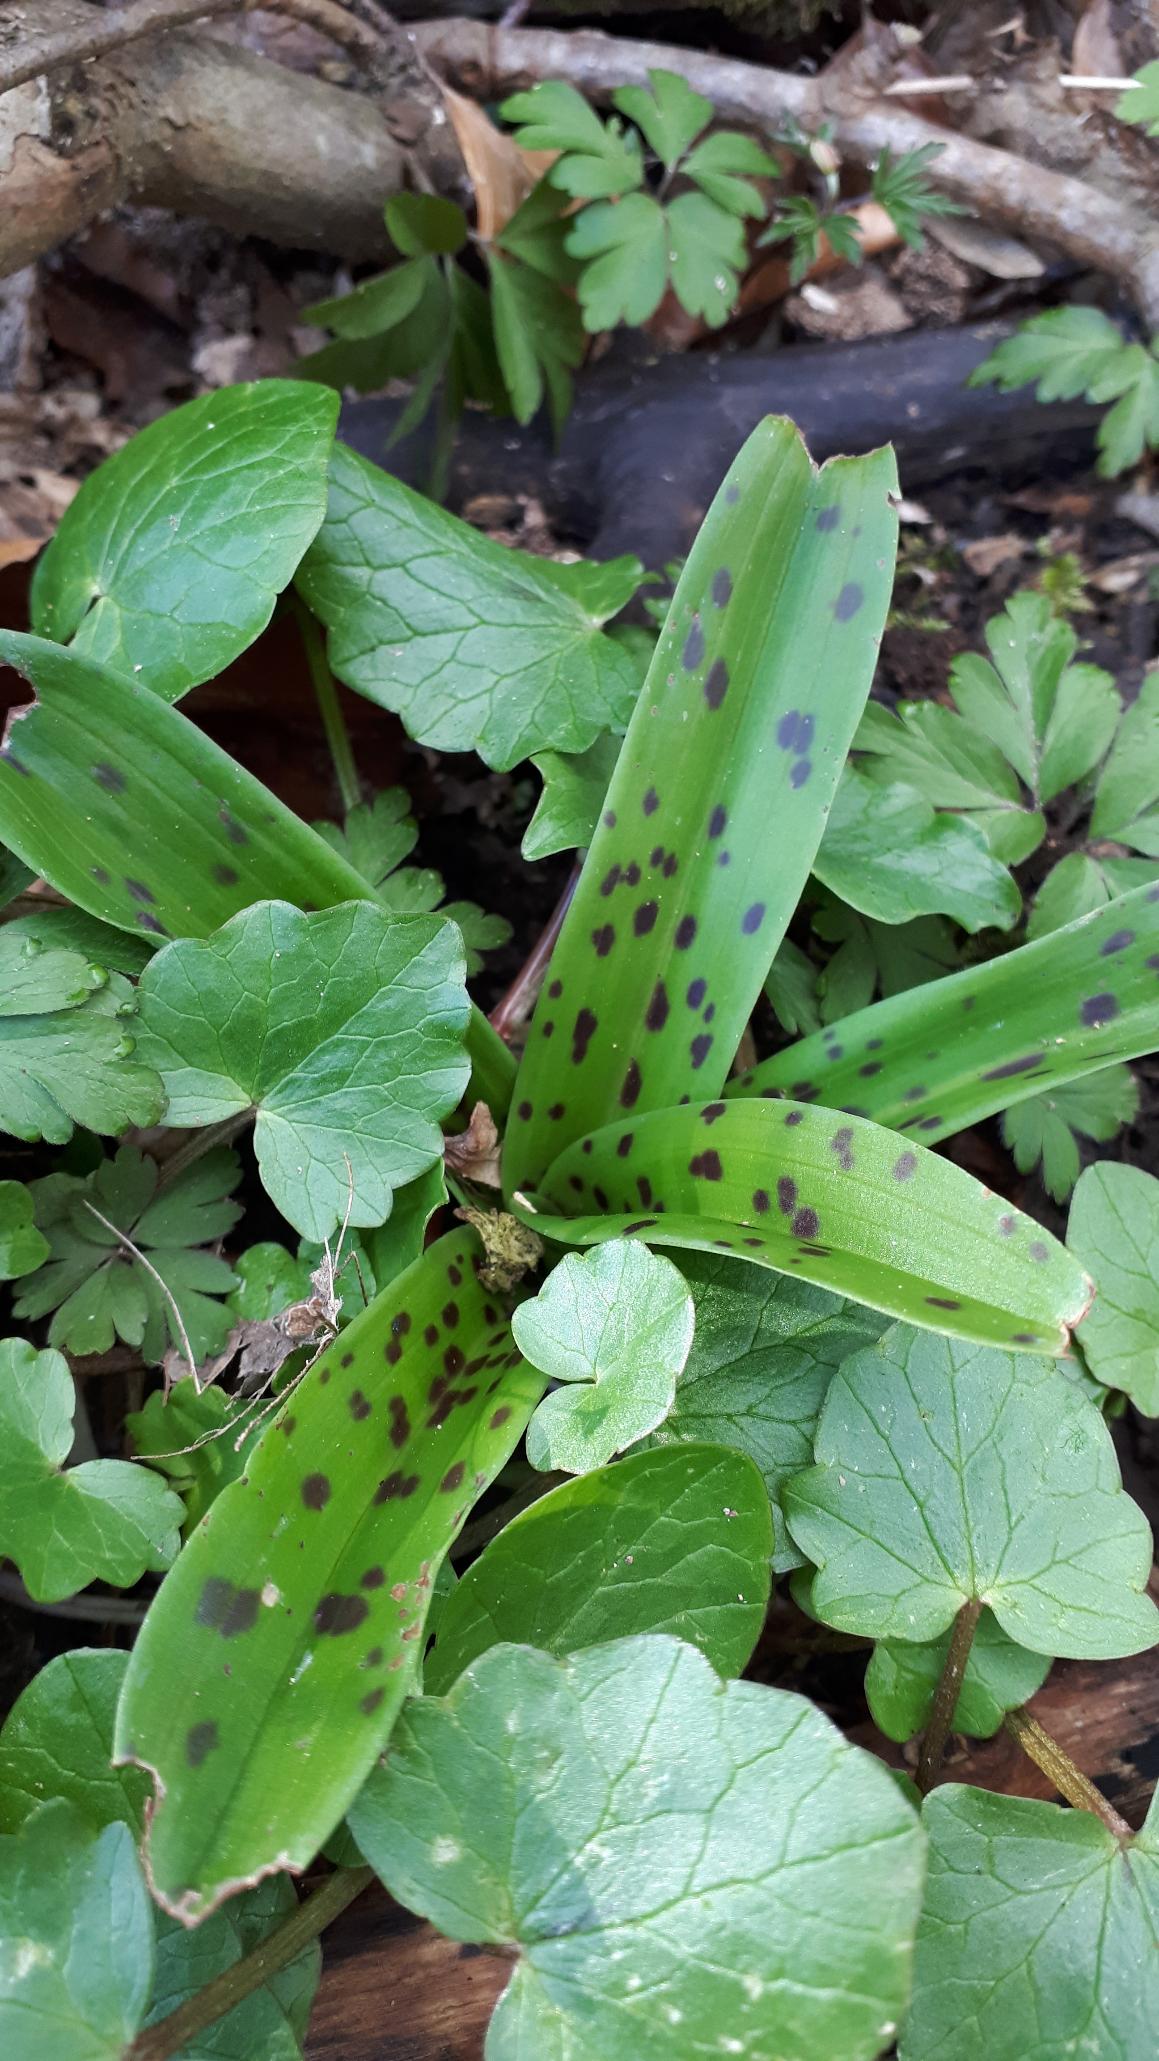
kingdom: Plantae
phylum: Tracheophyta
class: Liliopsida
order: Asparagales
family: Orchidaceae
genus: Orchis
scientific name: Orchis mascula
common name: Tyndakset gøgeurt
